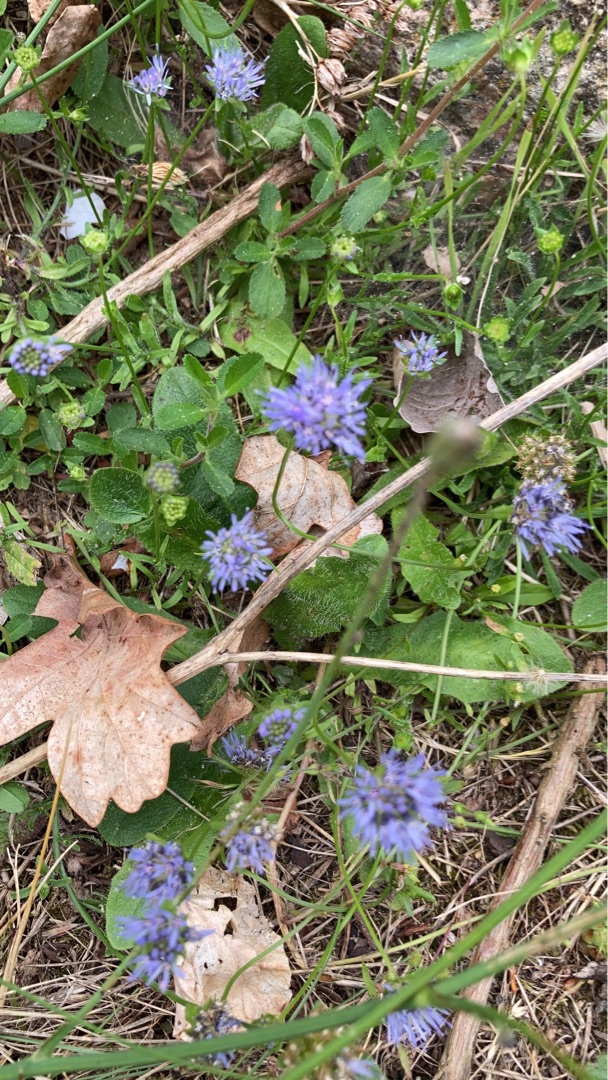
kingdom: Plantae
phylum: Tracheophyta
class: Magnoliopsida
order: Asterales
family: Campanulaceae
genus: Jasione
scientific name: Jasione montana
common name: Blåmunke
